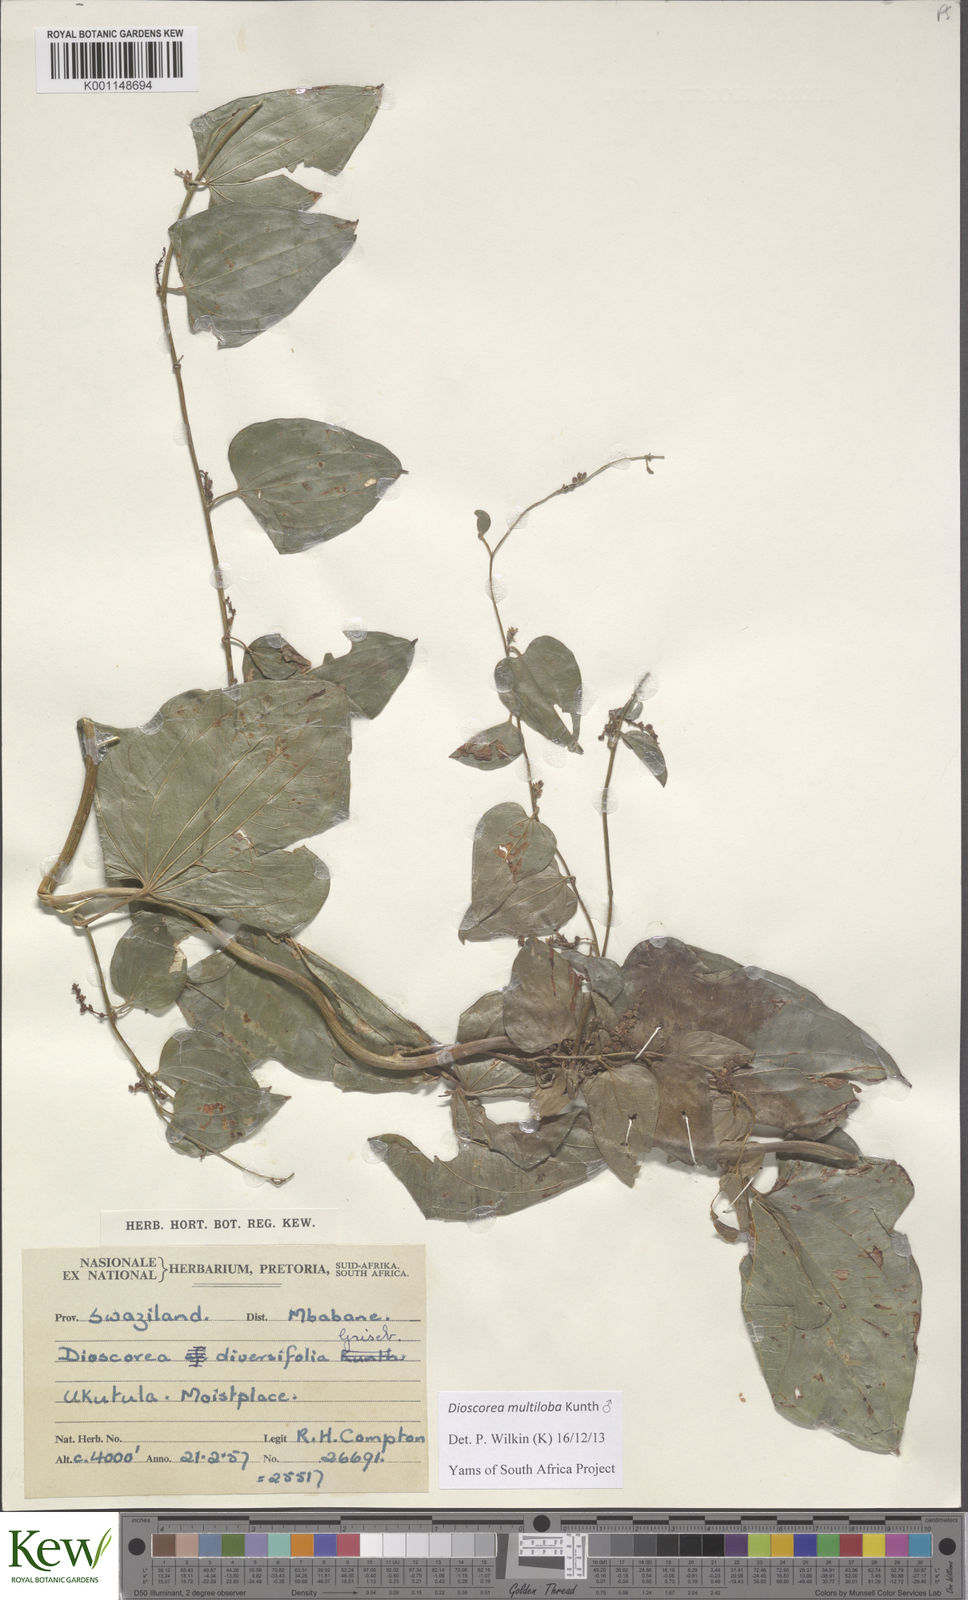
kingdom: Plantae
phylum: Tracheophyta
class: Liliopsida
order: Dioscoreales
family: Dioscoreaceae
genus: Dioscorea
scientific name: Dioscorea multiloba
